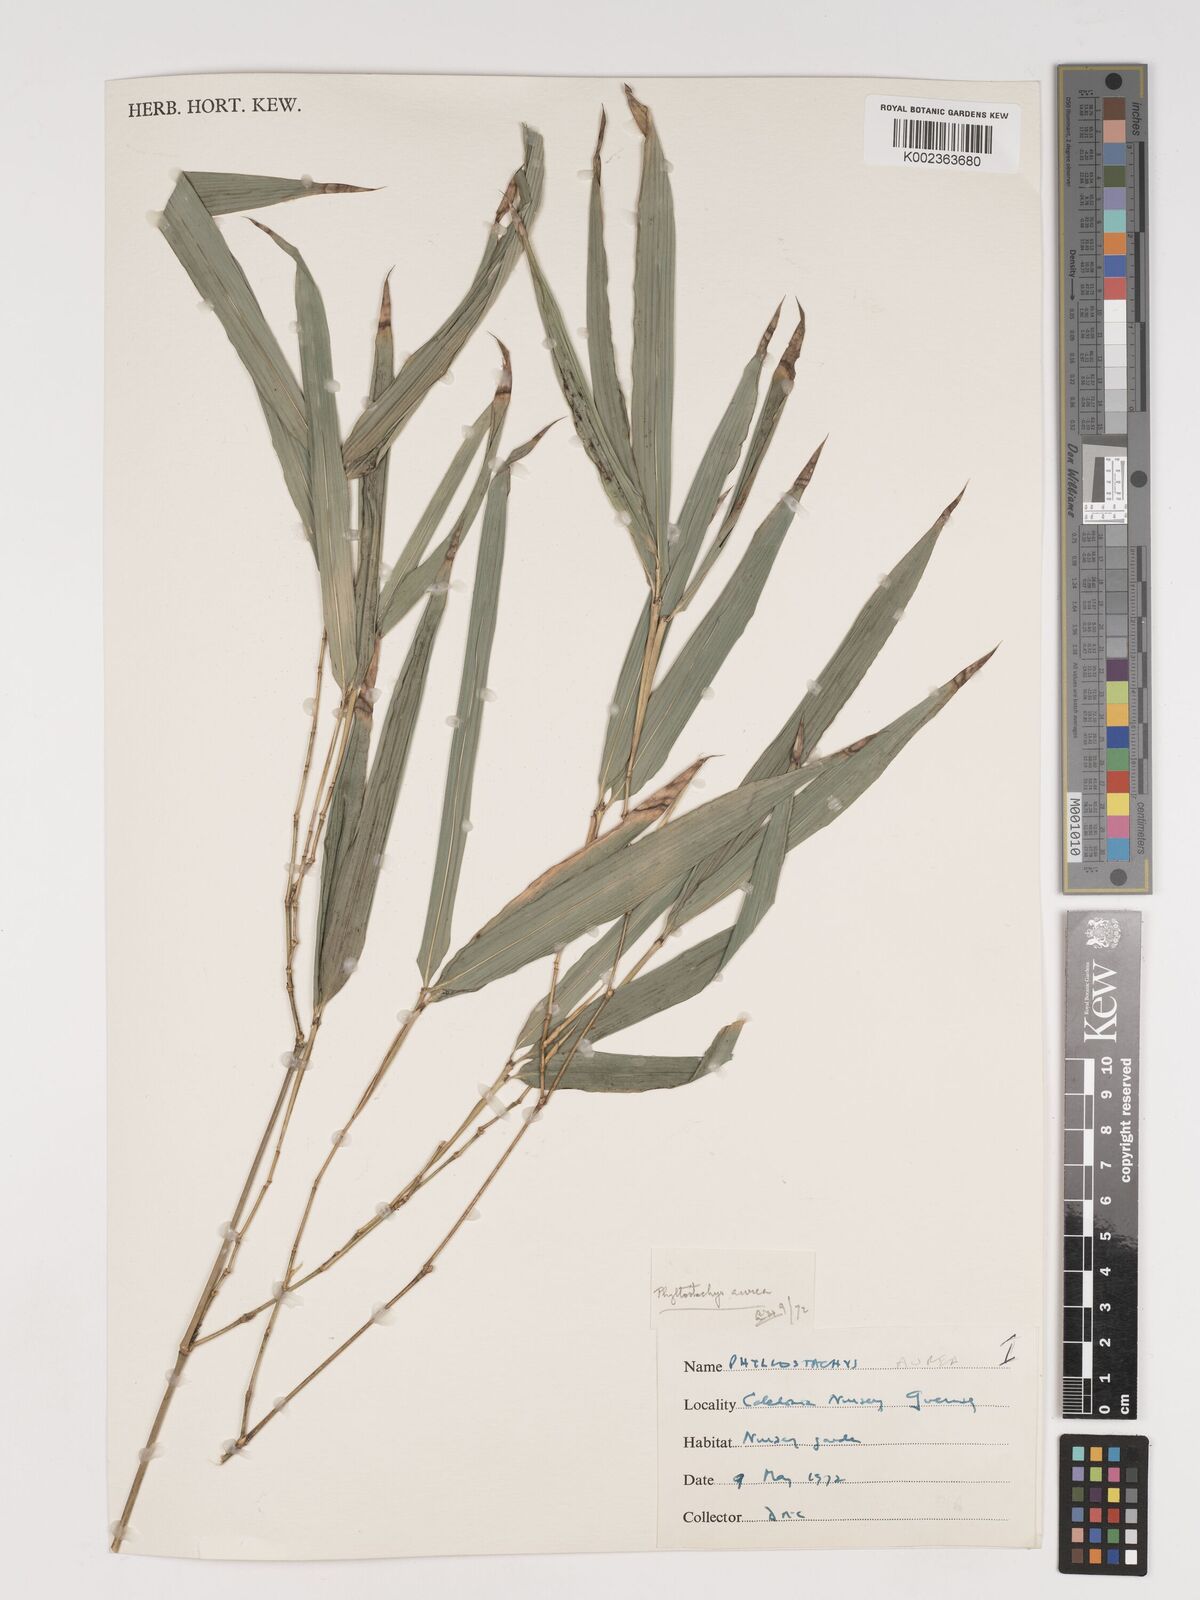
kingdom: Plantae
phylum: Tracheophyta
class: Liliopsida
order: Poales
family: Poaceae
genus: Phyllostachys
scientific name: Phyllostachys aurea
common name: Golden bamboo
